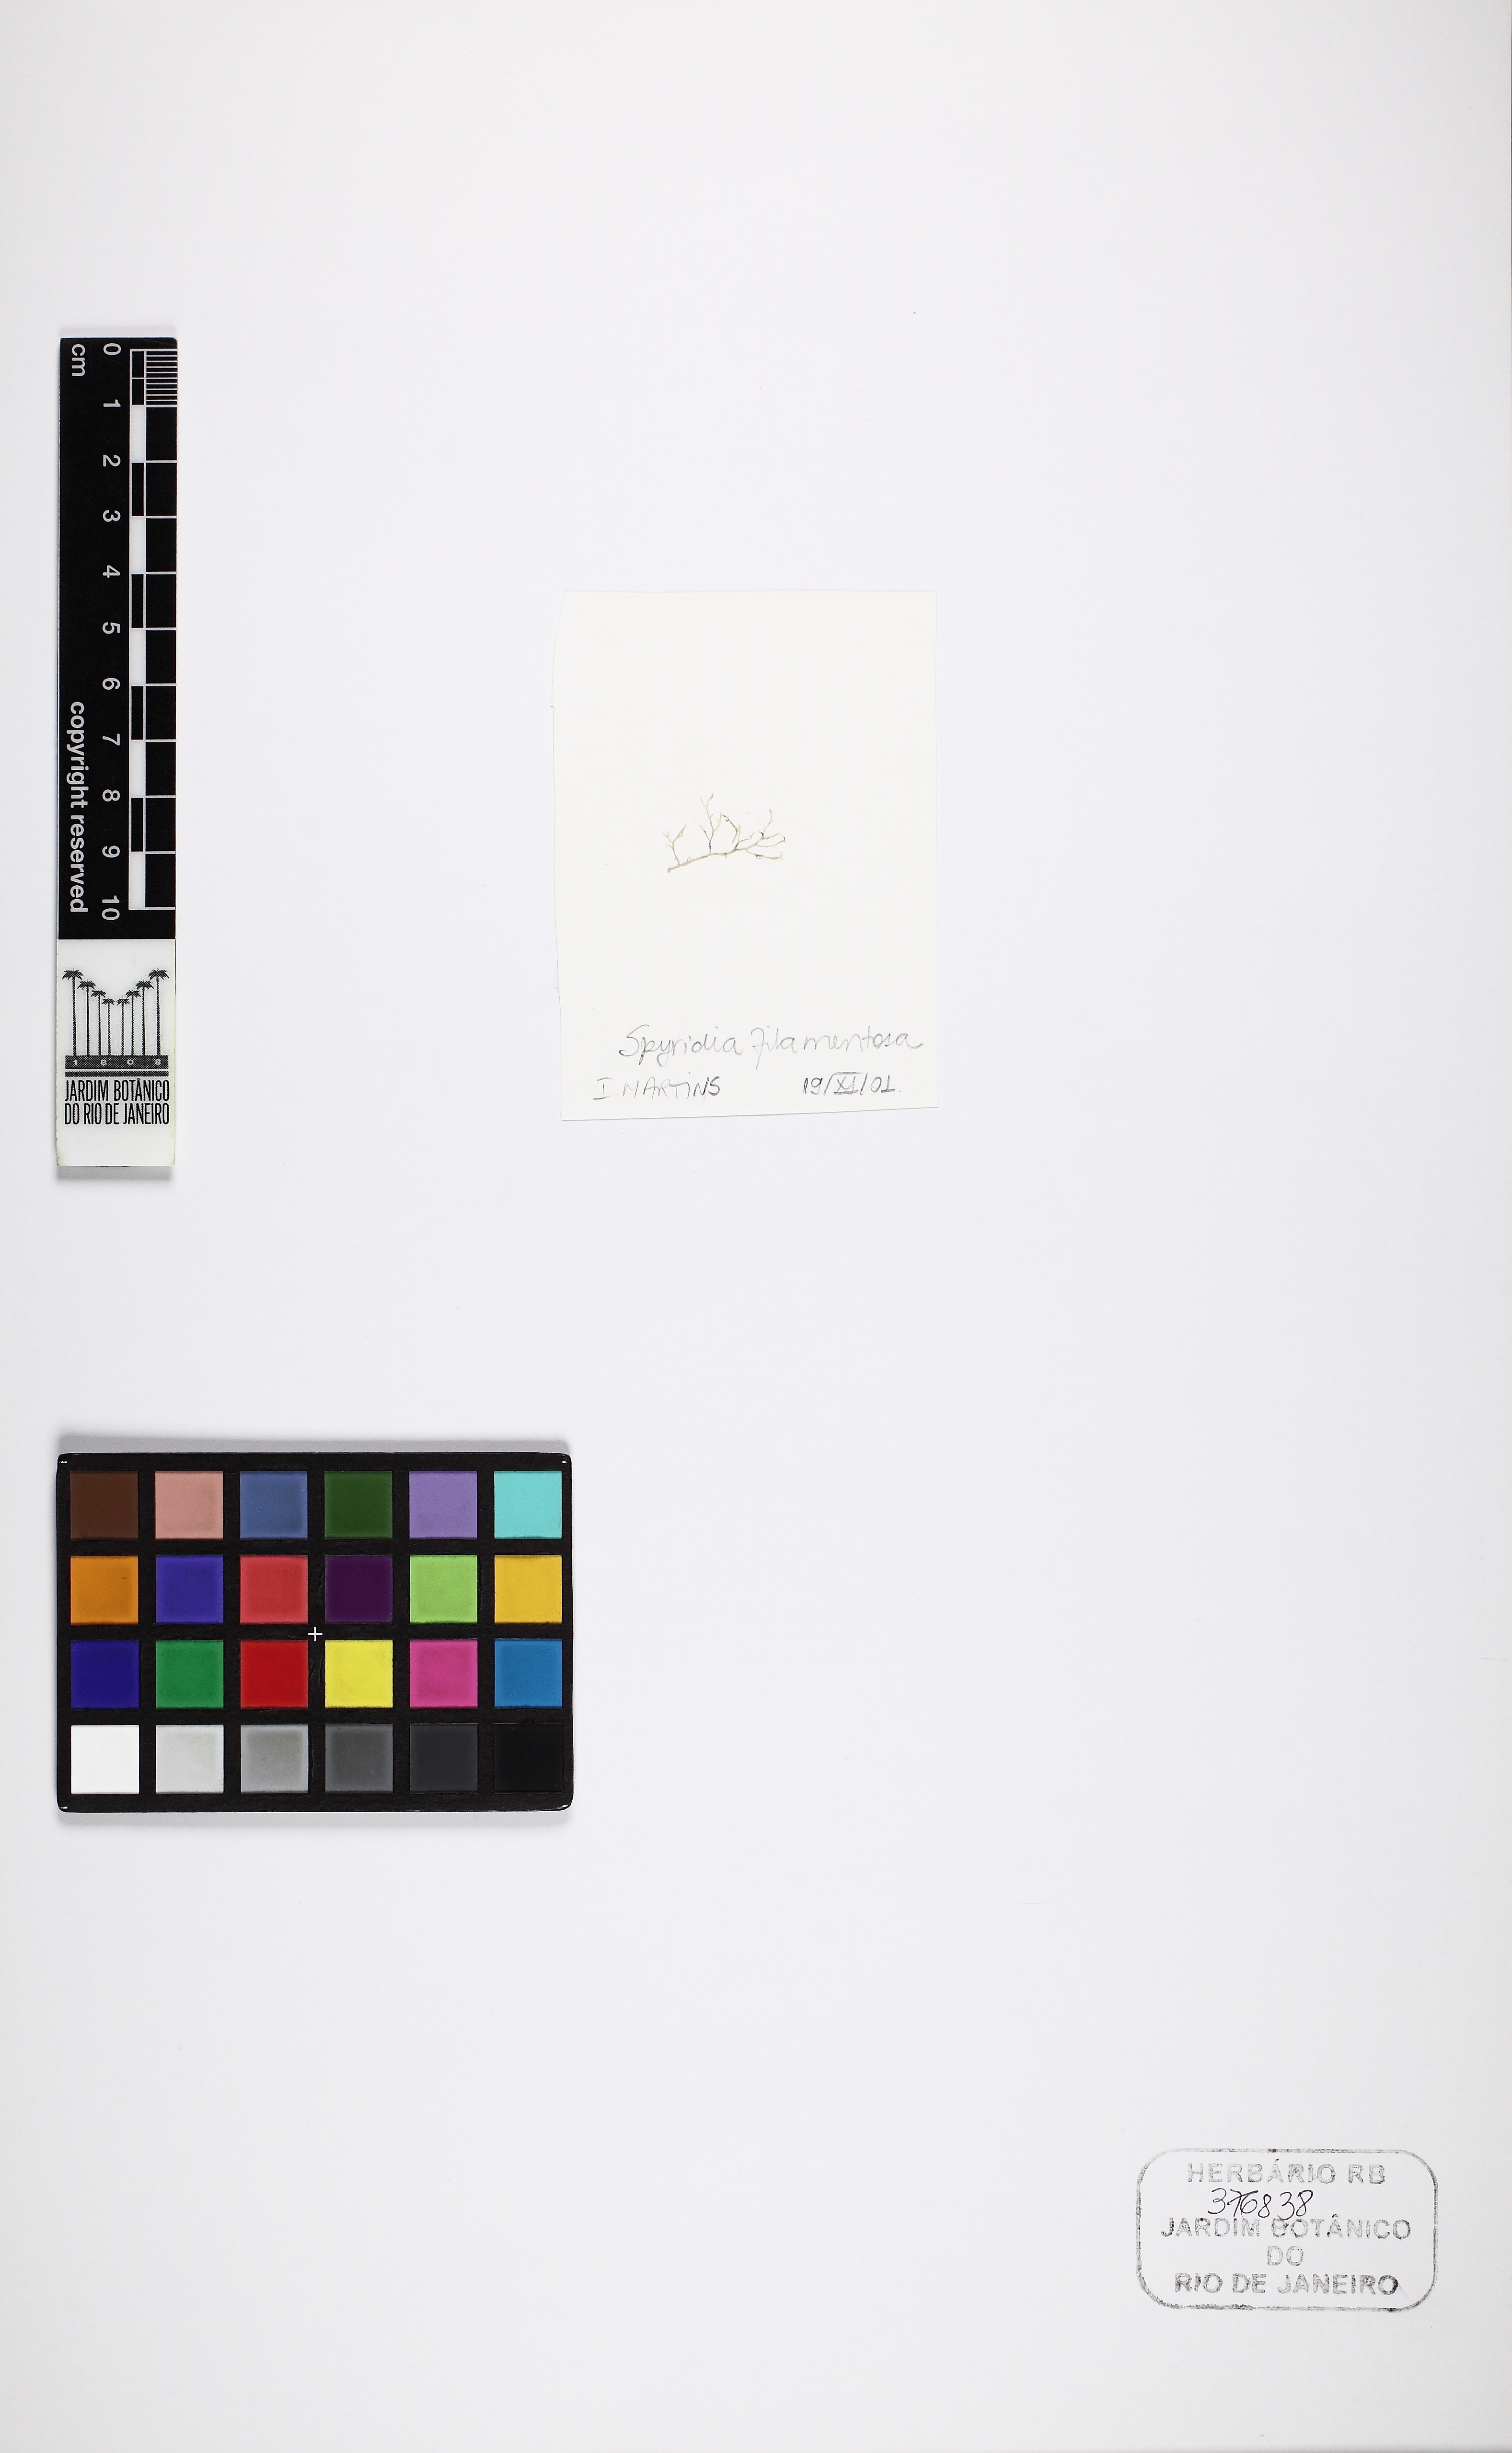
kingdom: Plantae
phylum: Rhodophyta
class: Florideophyceae
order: Ceramiales
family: Spyridiaceae
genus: Spyridia
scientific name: Spyridia filamentosa
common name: Red algae
